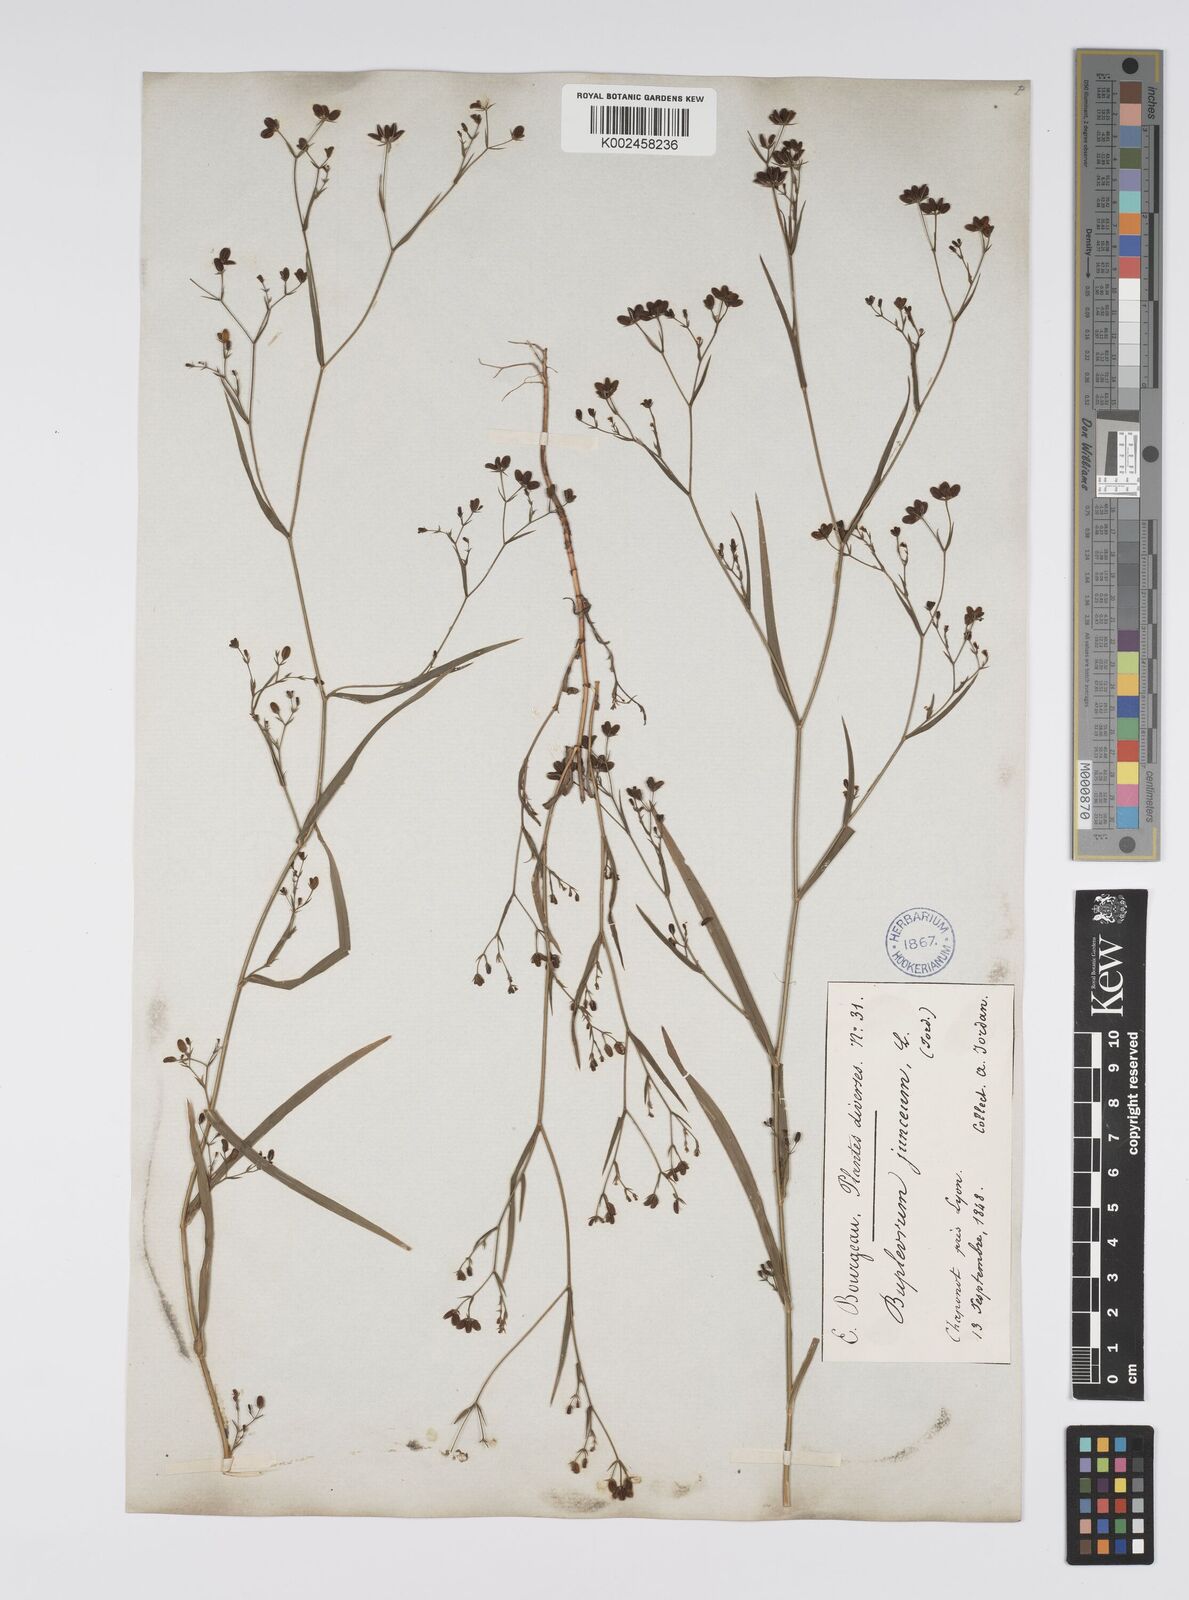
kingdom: Plantae
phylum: Tracheophyta
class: Magnoliopsida
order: Apiales
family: Apiaceae
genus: Bupleurum
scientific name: Bupleurum praealtum
